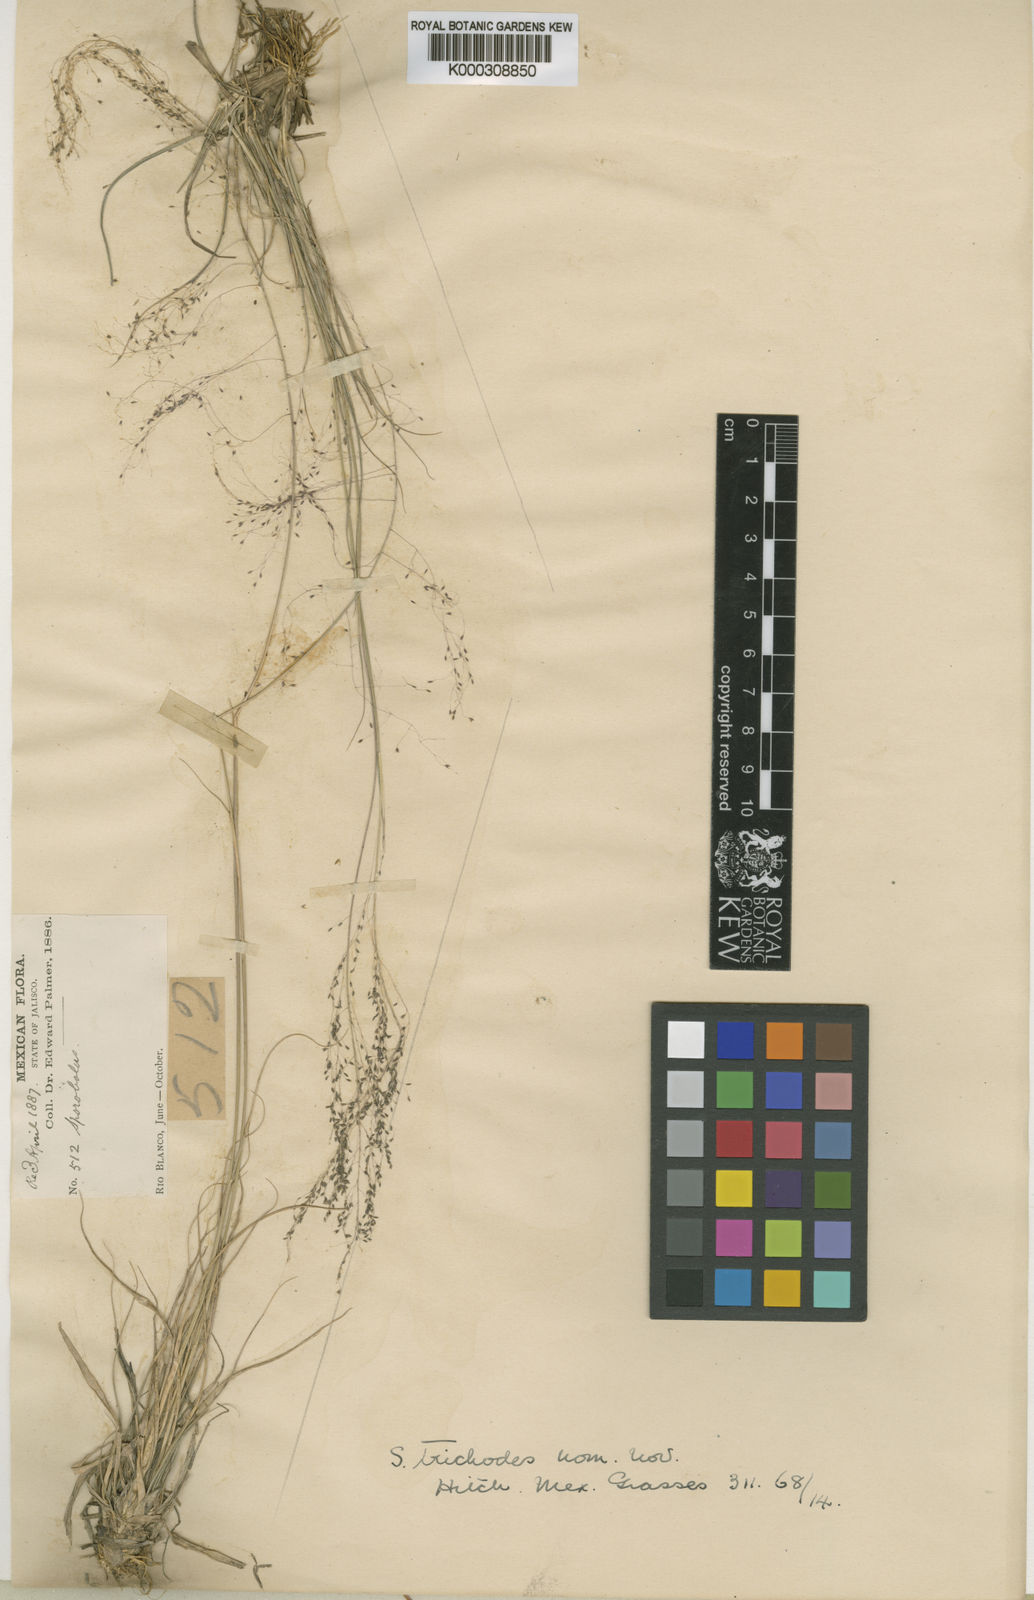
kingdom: Plantae
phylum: Tracheophyta
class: Liliopsida
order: Poales
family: Poaceae
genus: Sporobolus
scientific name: Sporobolus trichodes
